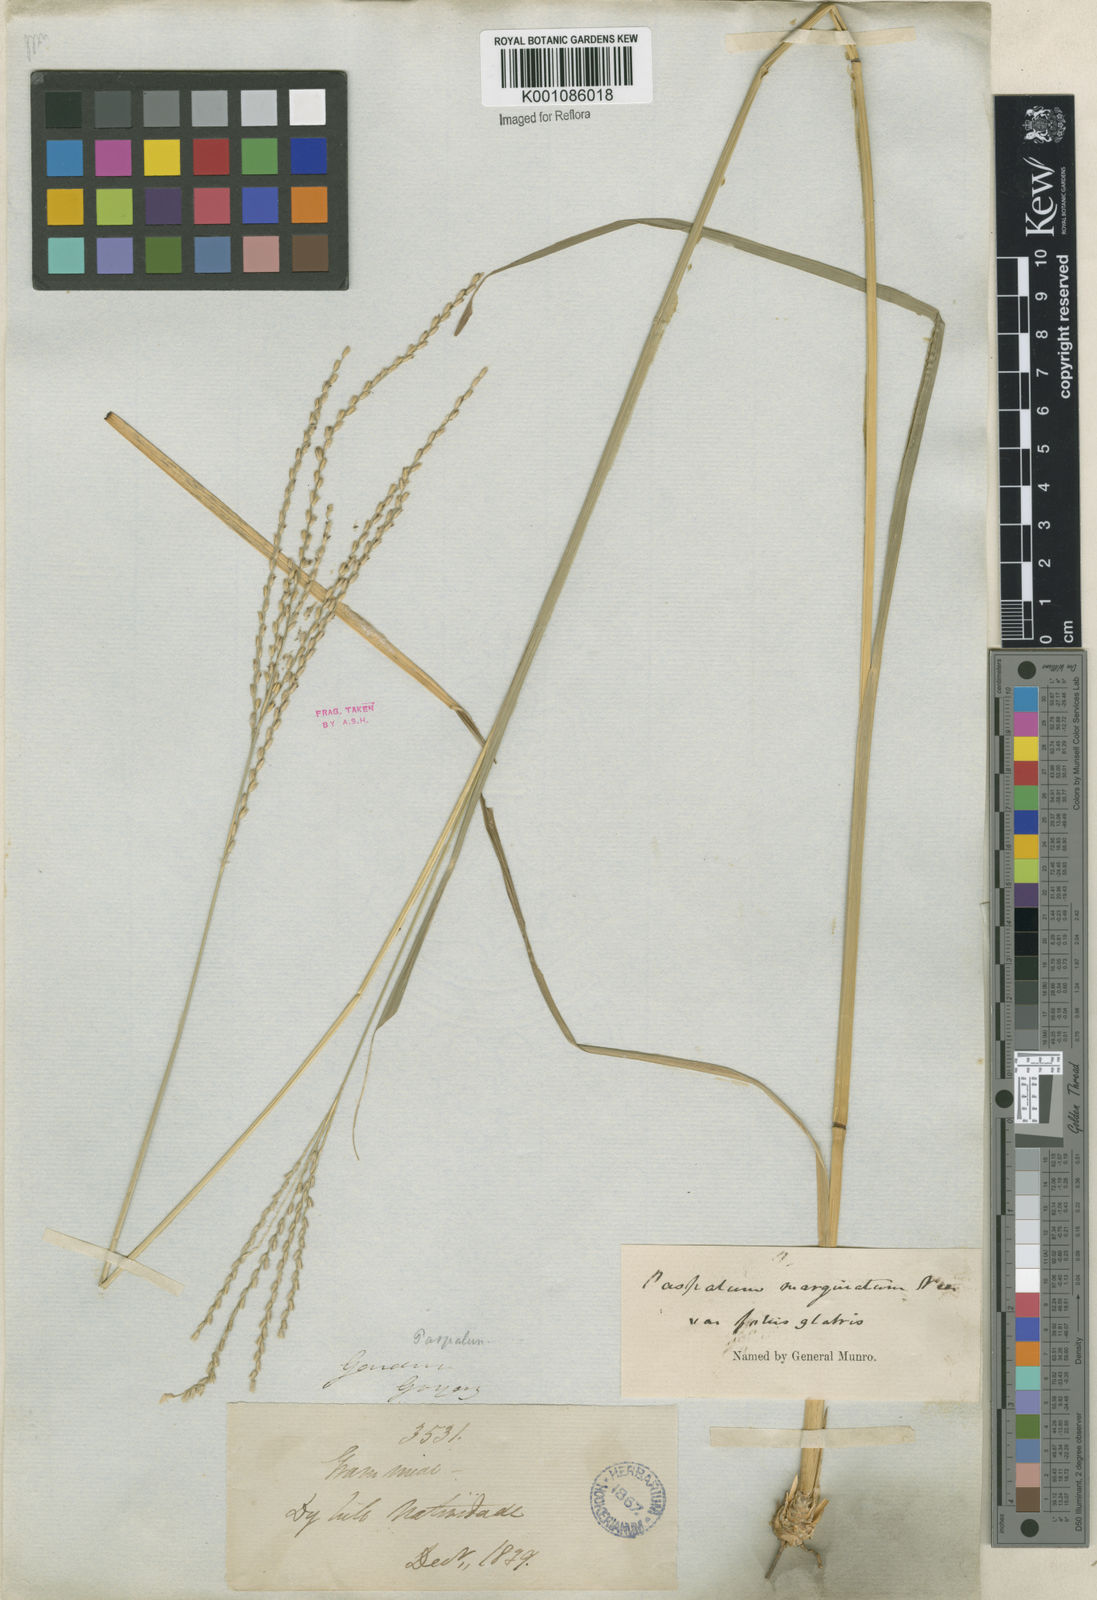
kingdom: Plantae
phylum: Tracheophyta
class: Liliopsida
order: Poales
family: Poaceae
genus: Axonopus
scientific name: Axonopus
